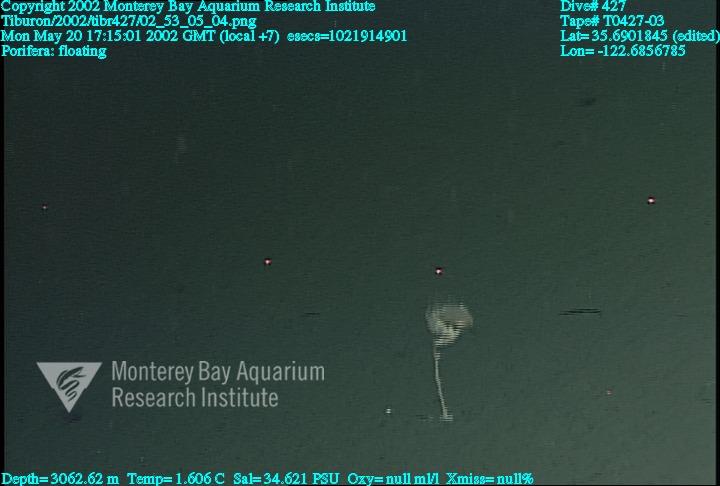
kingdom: Animalia
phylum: Porifera
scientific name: Porifera
